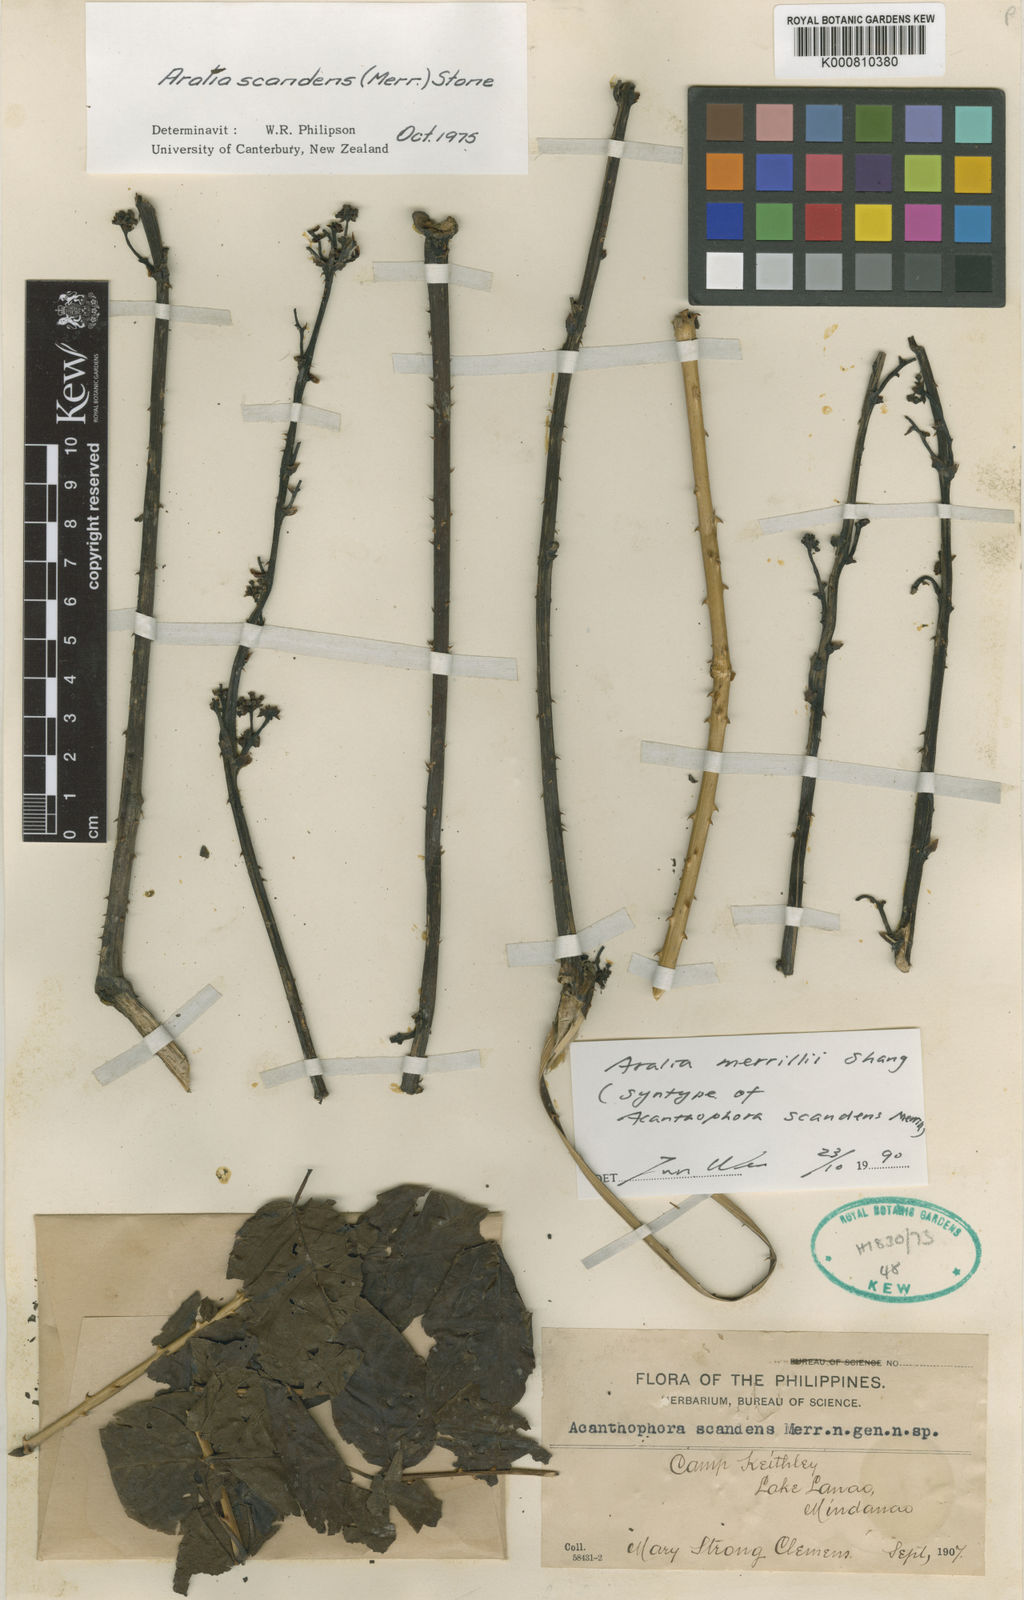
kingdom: Plantae
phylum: Tracheophyta
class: Magnoliopsida
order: Apiales
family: Araliaceae
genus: Aralia
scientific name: Aralia merrillii
